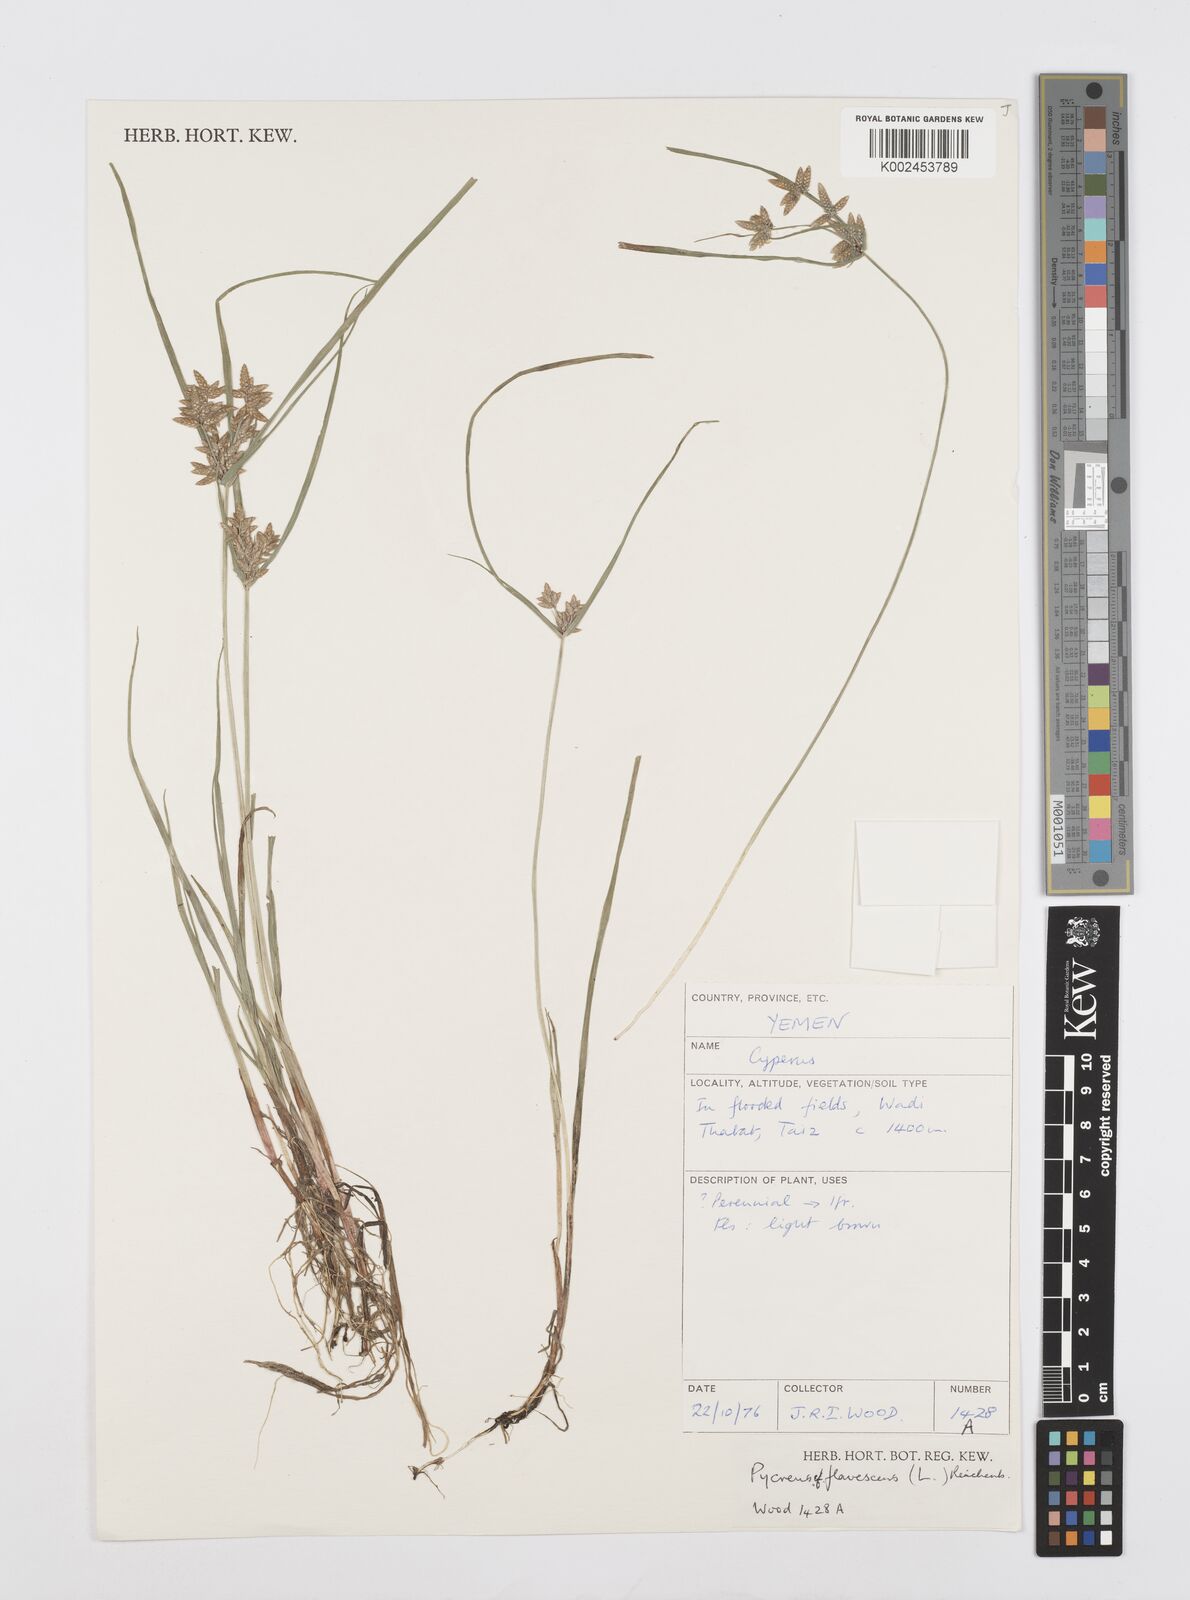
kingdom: Plantae
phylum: Tracheophyta
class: Liliopsida
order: Poales
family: Cyperaceae
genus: Cyperus
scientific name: Cyperus flavescens
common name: Yellow galingale
